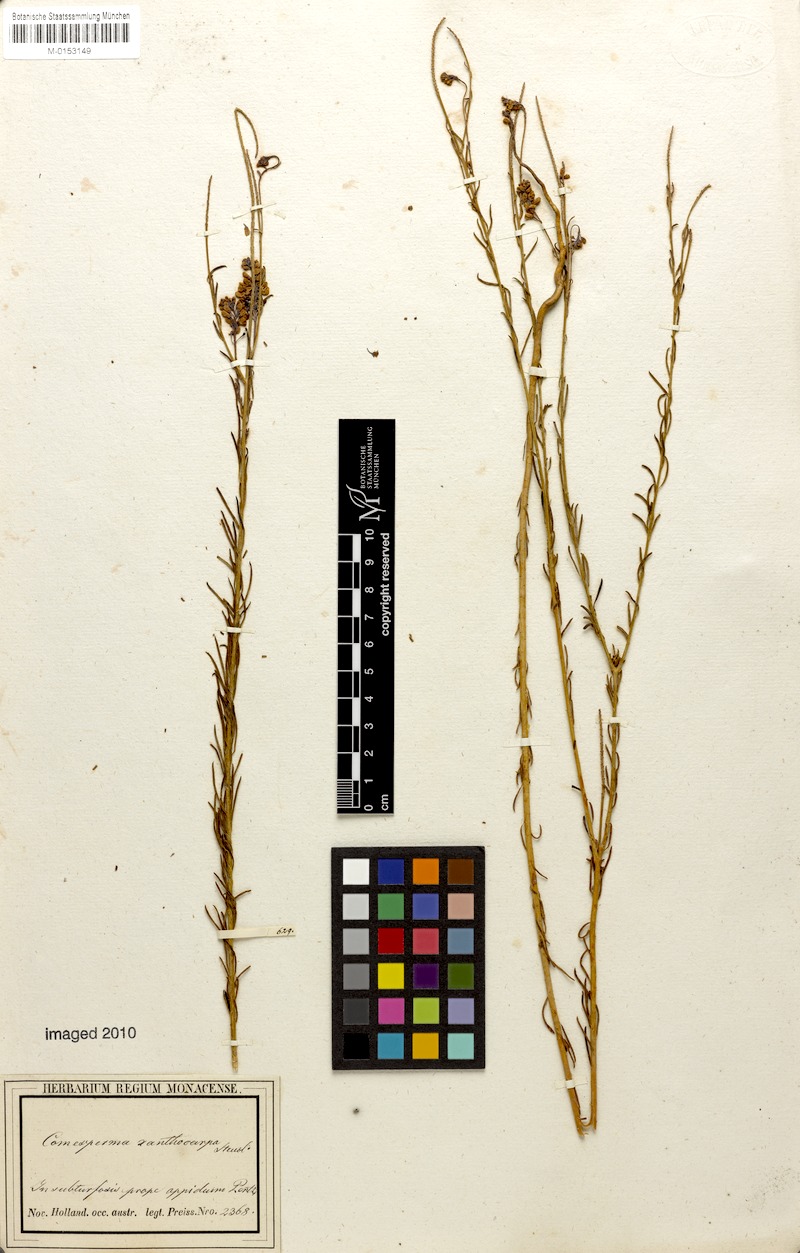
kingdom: Plantae
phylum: Tracheophyta
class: Magnoliopsida
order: Fabales
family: Polygalaceae
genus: Comesperma
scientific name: Comesperma xanthocarpum
